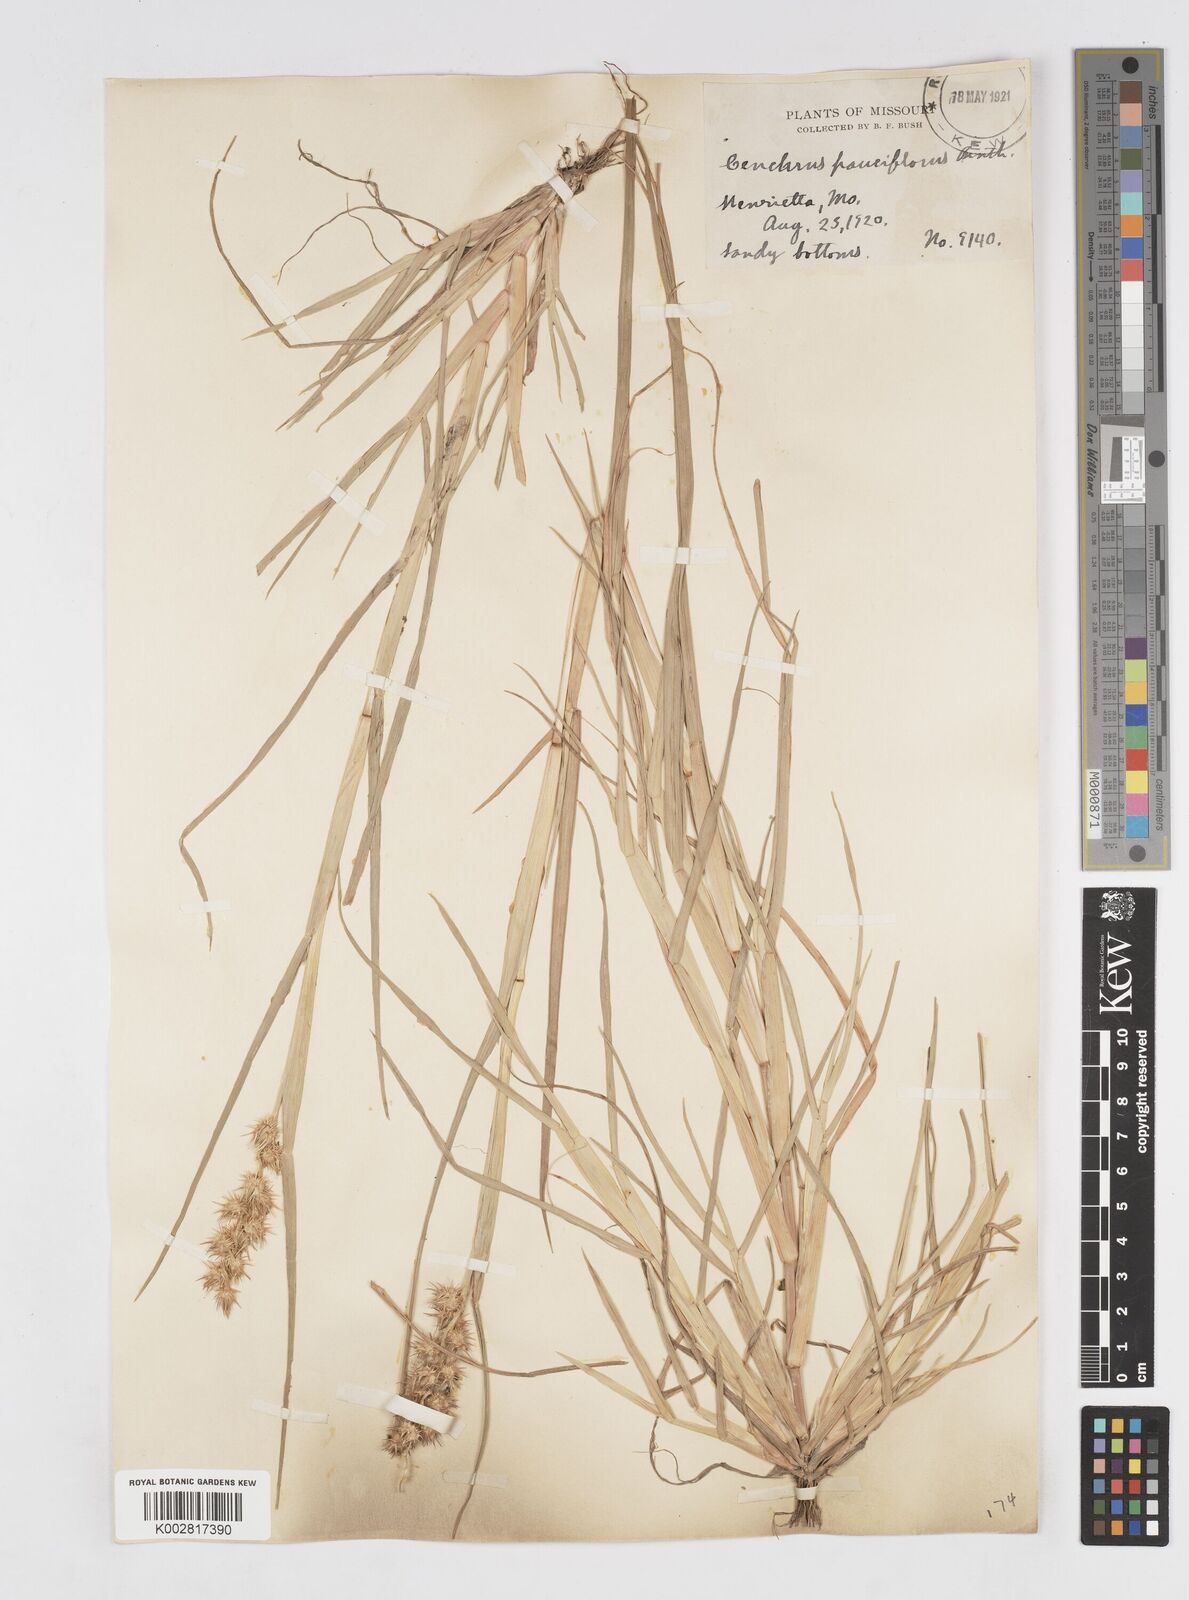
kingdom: Plantae
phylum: Tracheophyta
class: Liliopsida
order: Poales
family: Poaceae
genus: Cenchrus
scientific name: Cenchrus longispinus
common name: Mat sandbur
